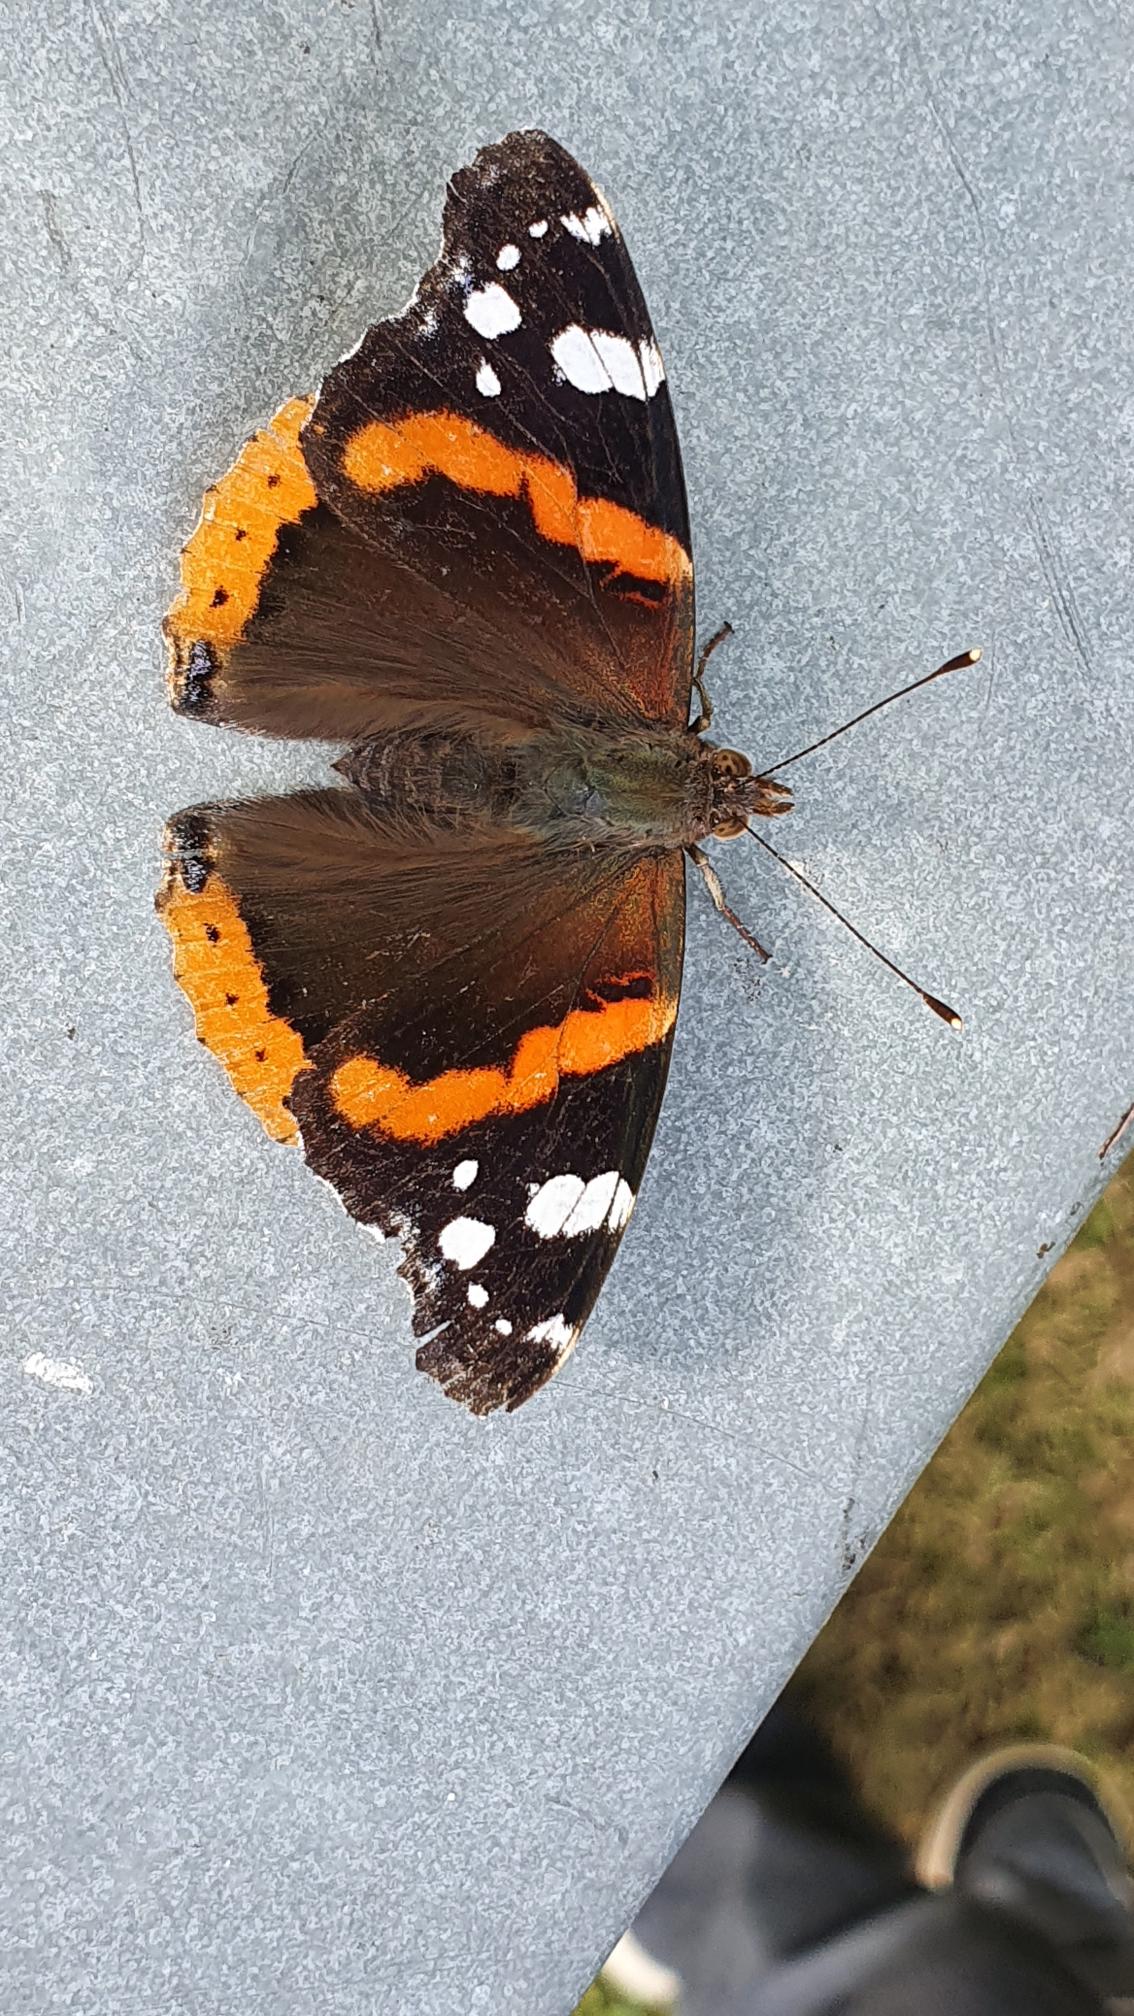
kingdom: Animalia
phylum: Arthropoda
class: Insecta
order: Lepidoptera
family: Nymphalidae
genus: Vanessa
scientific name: Vanessa atalanta
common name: Admiral
